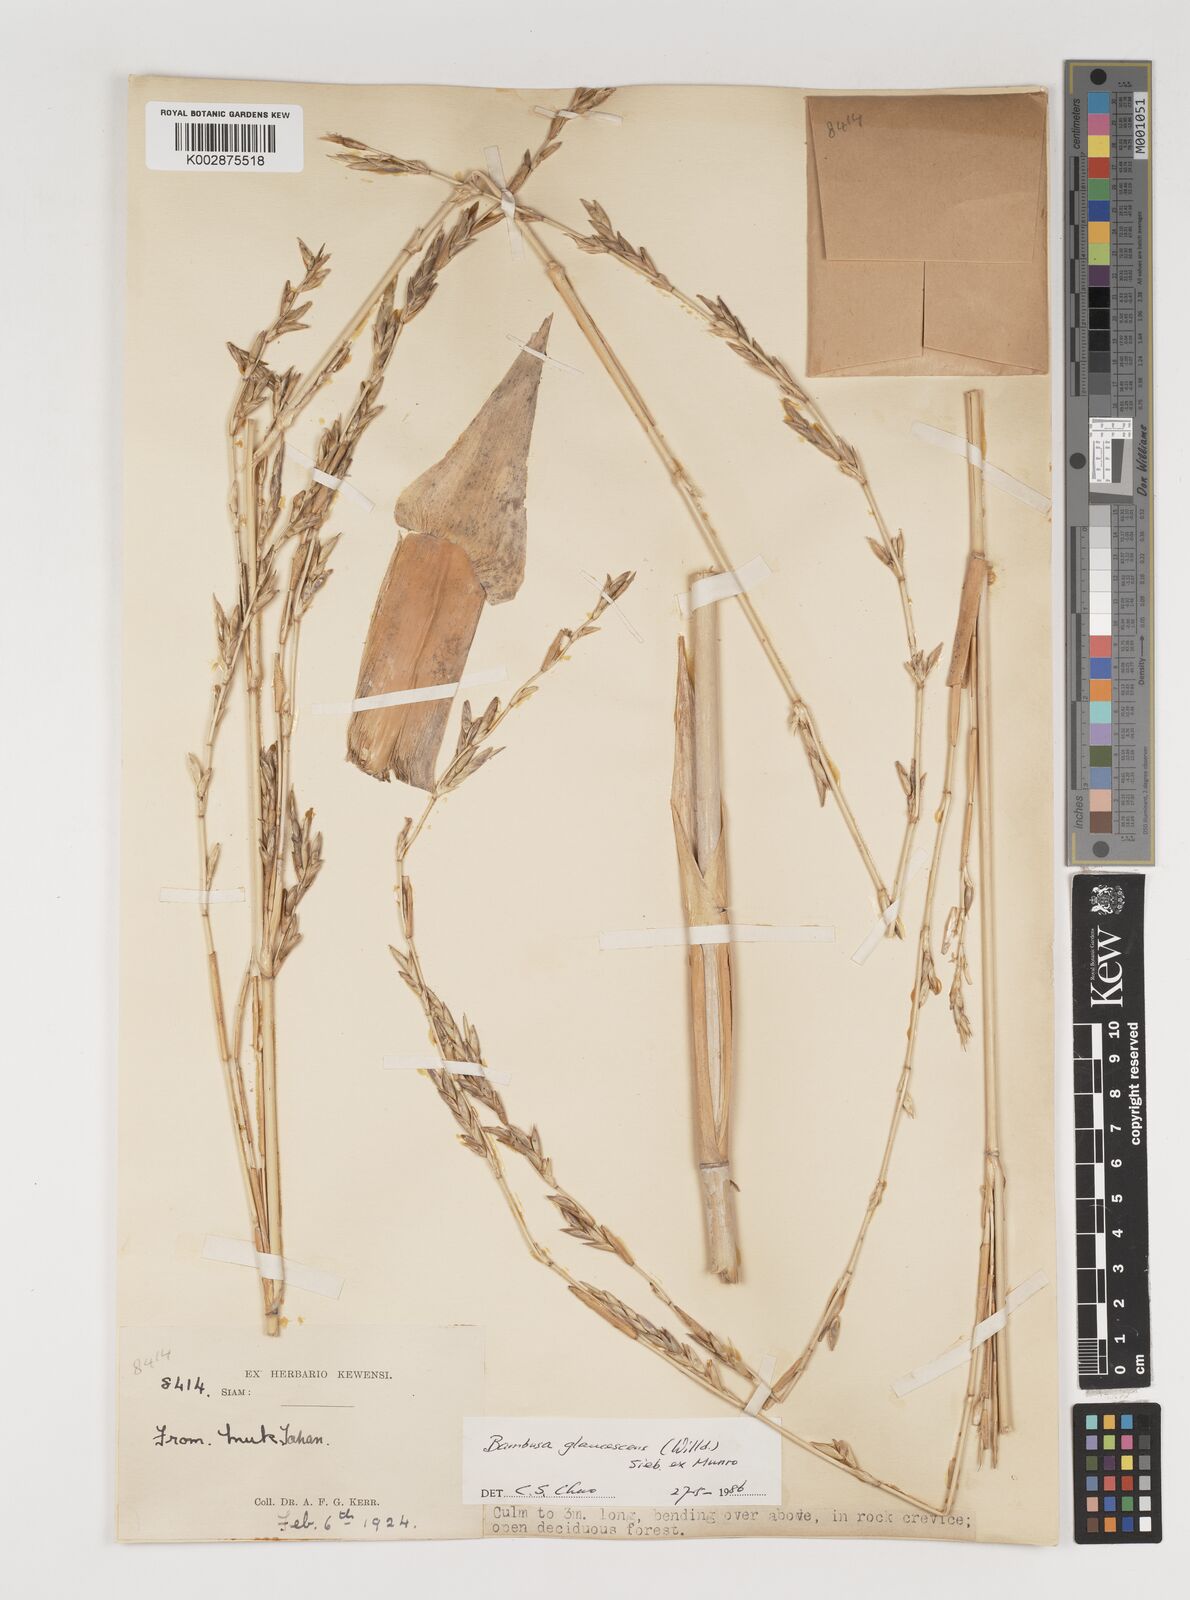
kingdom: Plantae
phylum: Tracheophyta
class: Liliopsida
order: Poales
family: Poaceae
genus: Vietnamosasa
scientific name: Vietnamosasa
